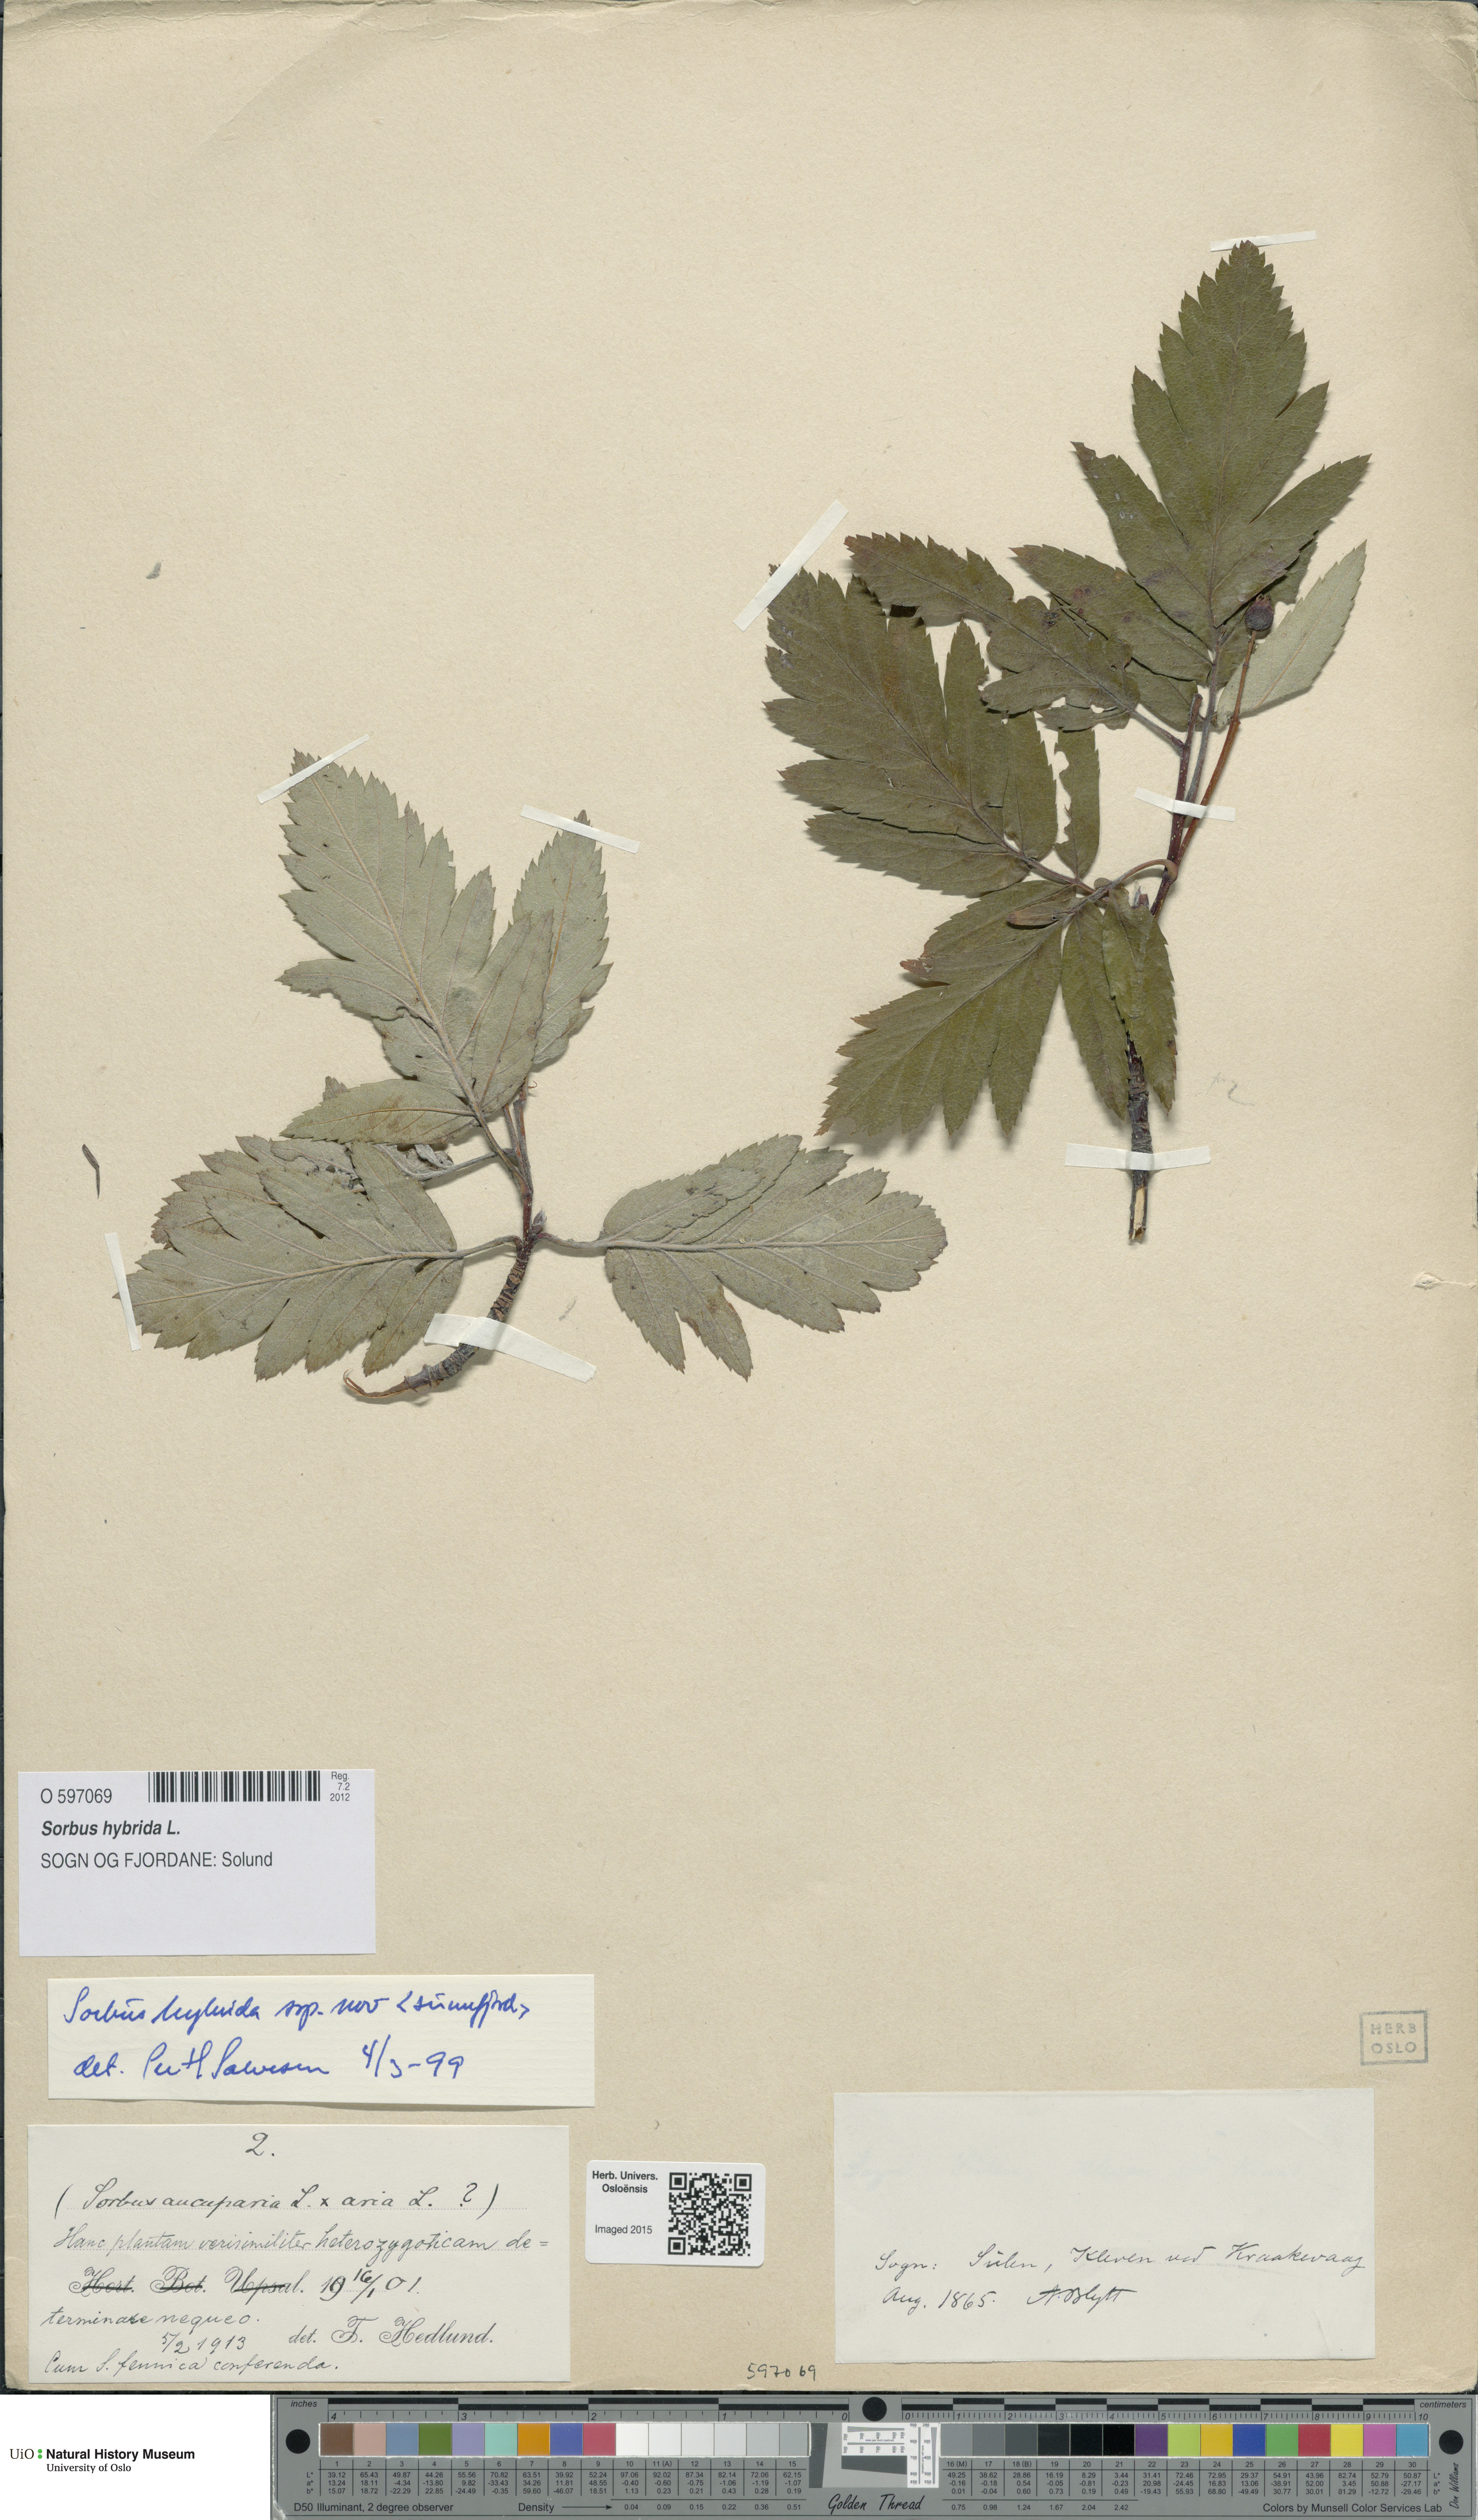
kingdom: Plantae
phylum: Tracheophyta
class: Magnoliopsida
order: Rosales
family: Rosaceae
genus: Hedlundia
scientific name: Hedlundia hybrida
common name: Swedish service-tree
